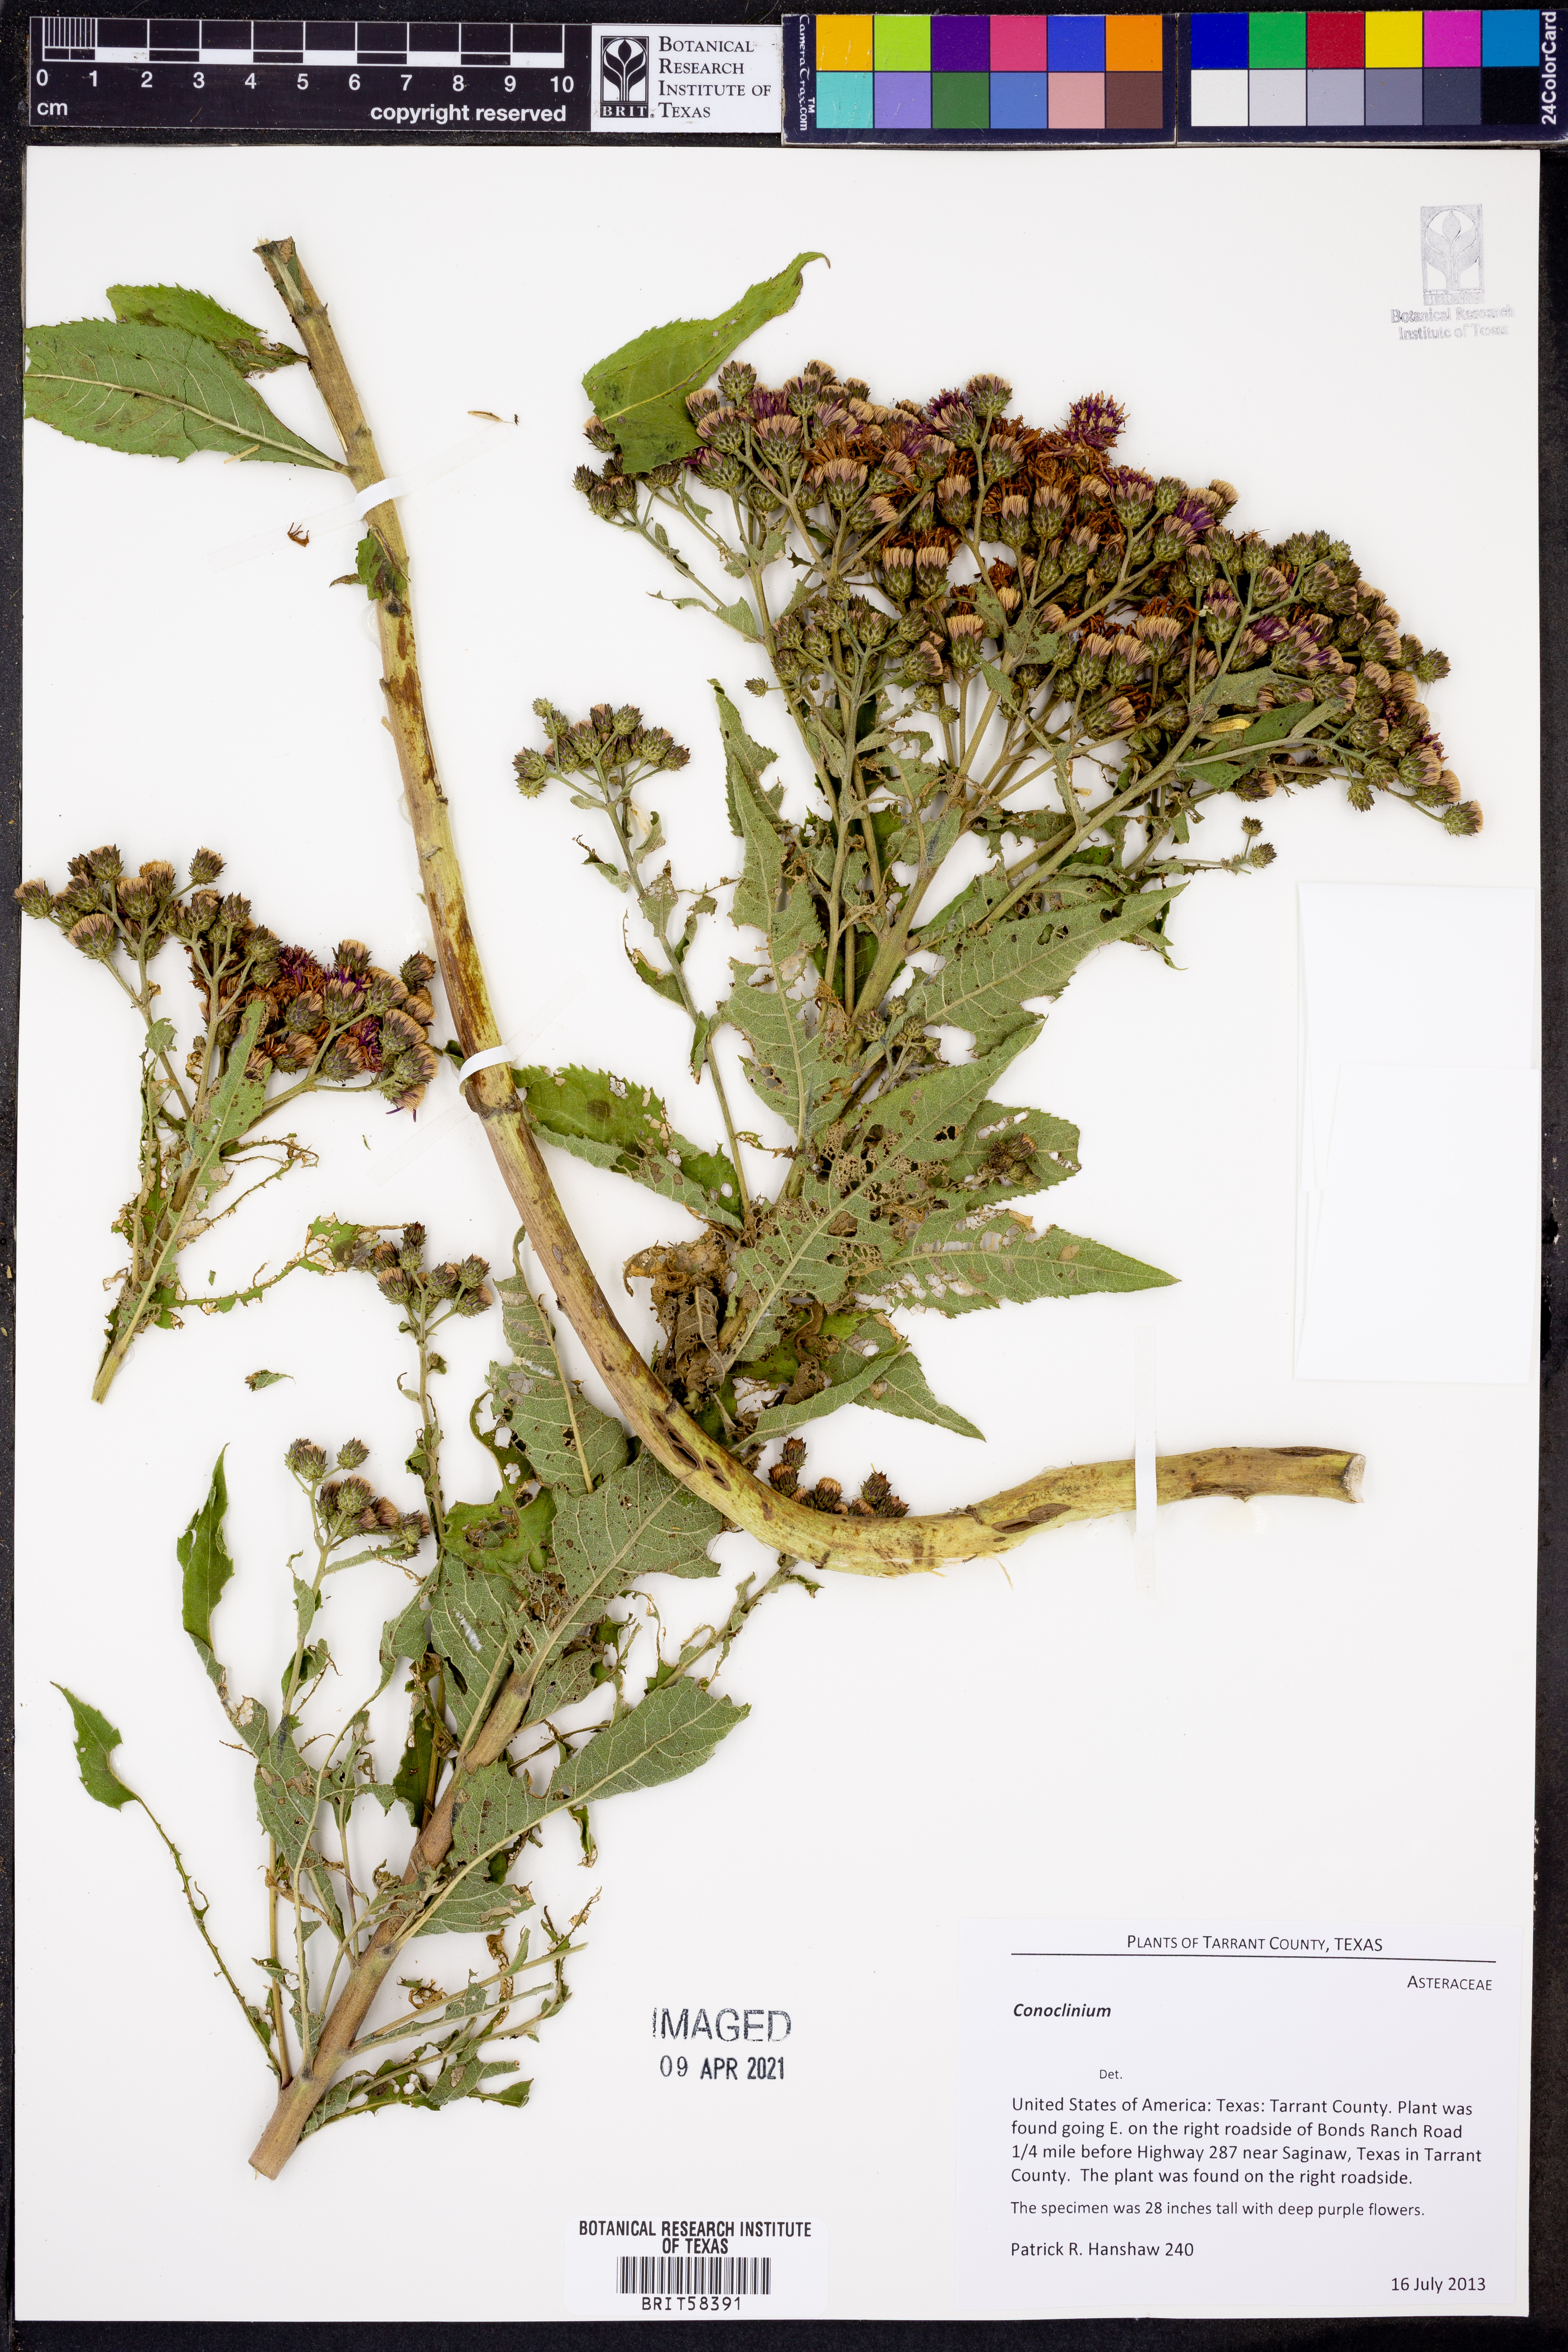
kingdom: Plantae
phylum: Tracheophyta
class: Magnoliopsida
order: Asterales
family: Asteraceae
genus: Conoclinium
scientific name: Conoclinium
